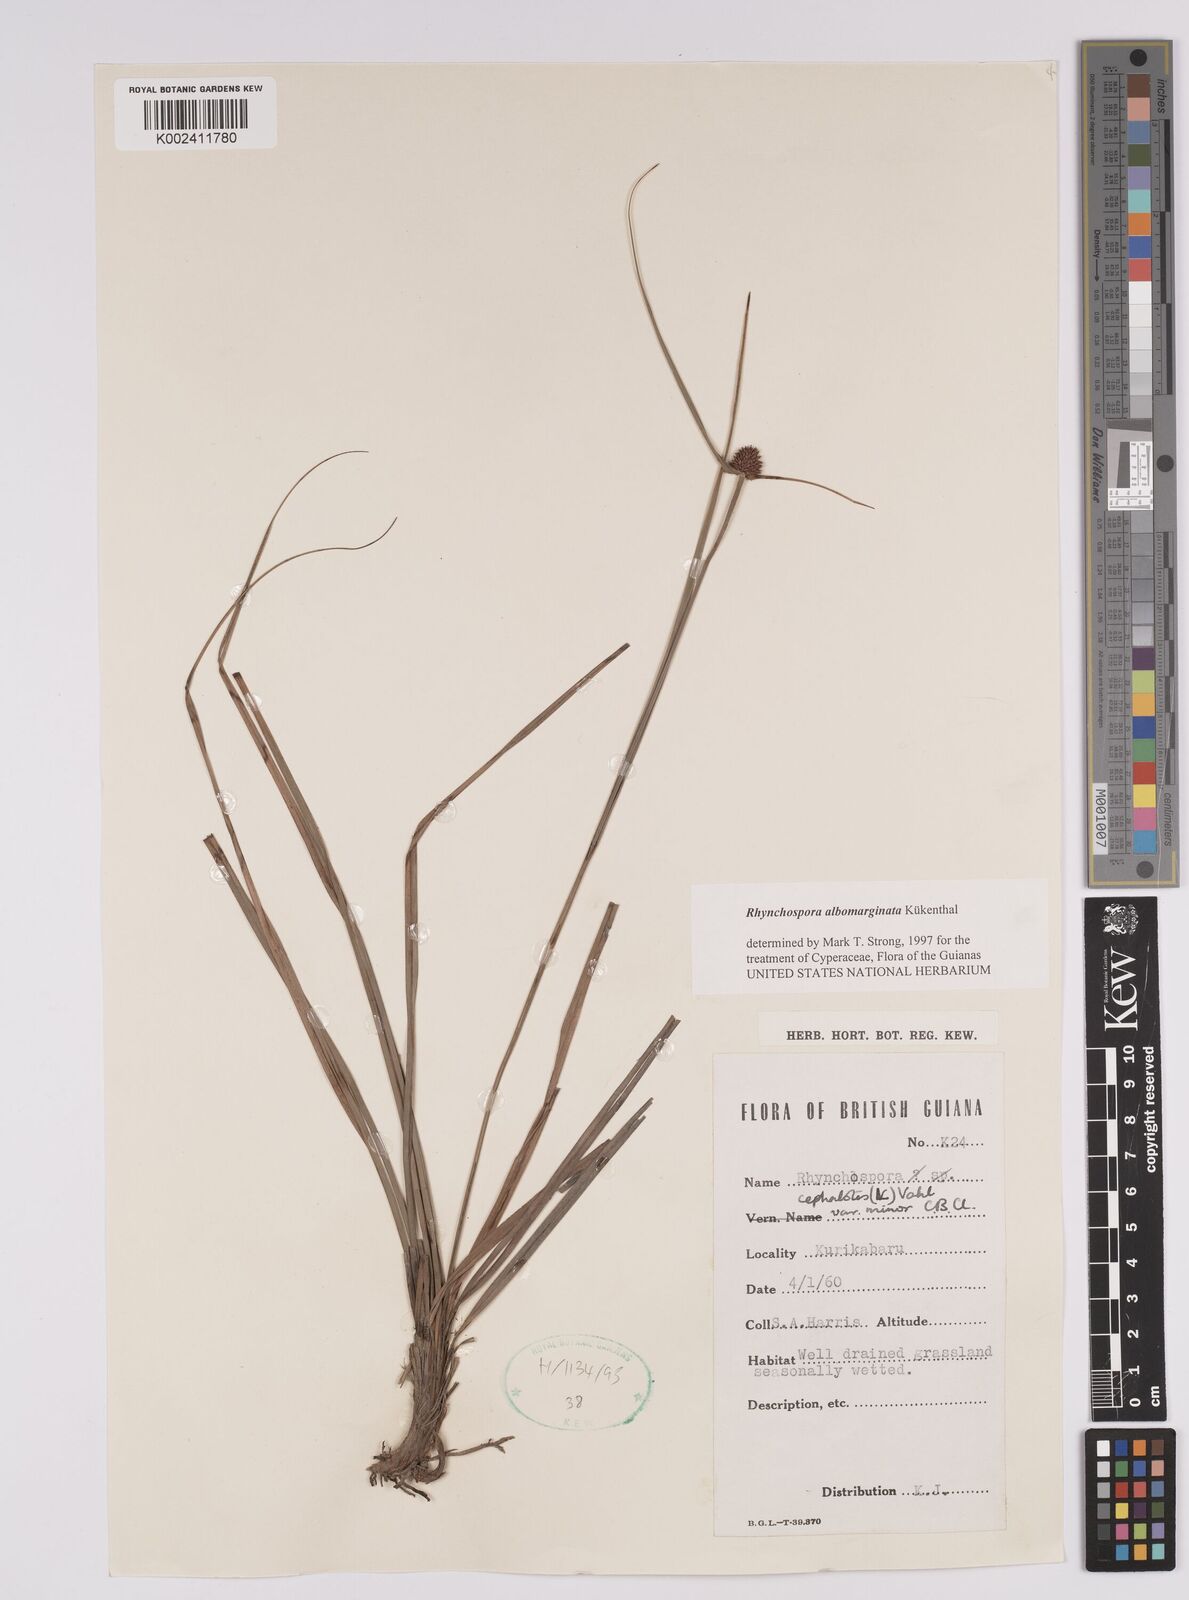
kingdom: Plantae
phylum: Tracheophyta
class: Liliopsida
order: Poales
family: Cyperaceae
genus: Rhynchospora
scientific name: Rhynchospora cephalotes
